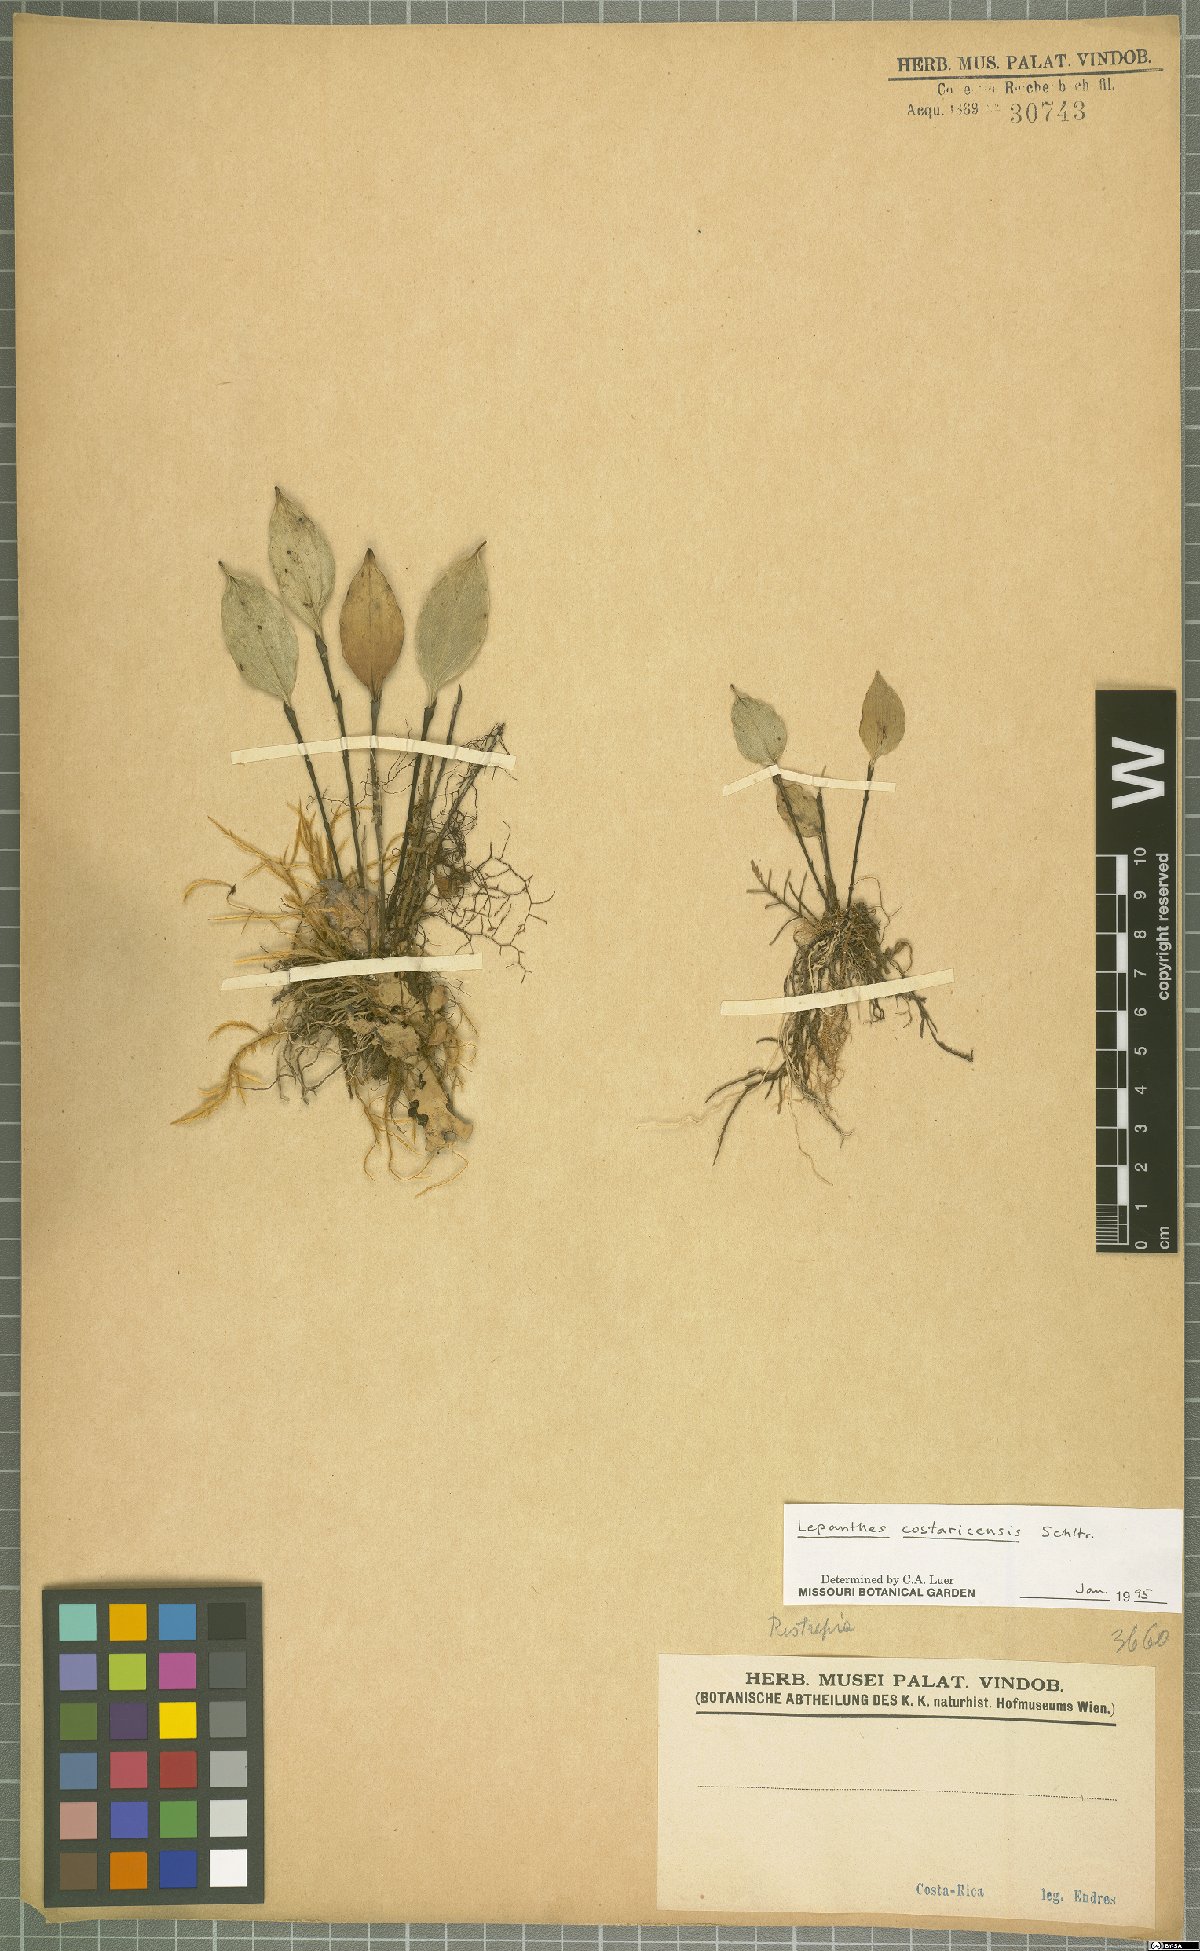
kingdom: Plantae
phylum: Tracheophyta
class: Liliopsida
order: Asparagales
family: Orchidaceae
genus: Lepanthes
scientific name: Lepanthes costaricensis
